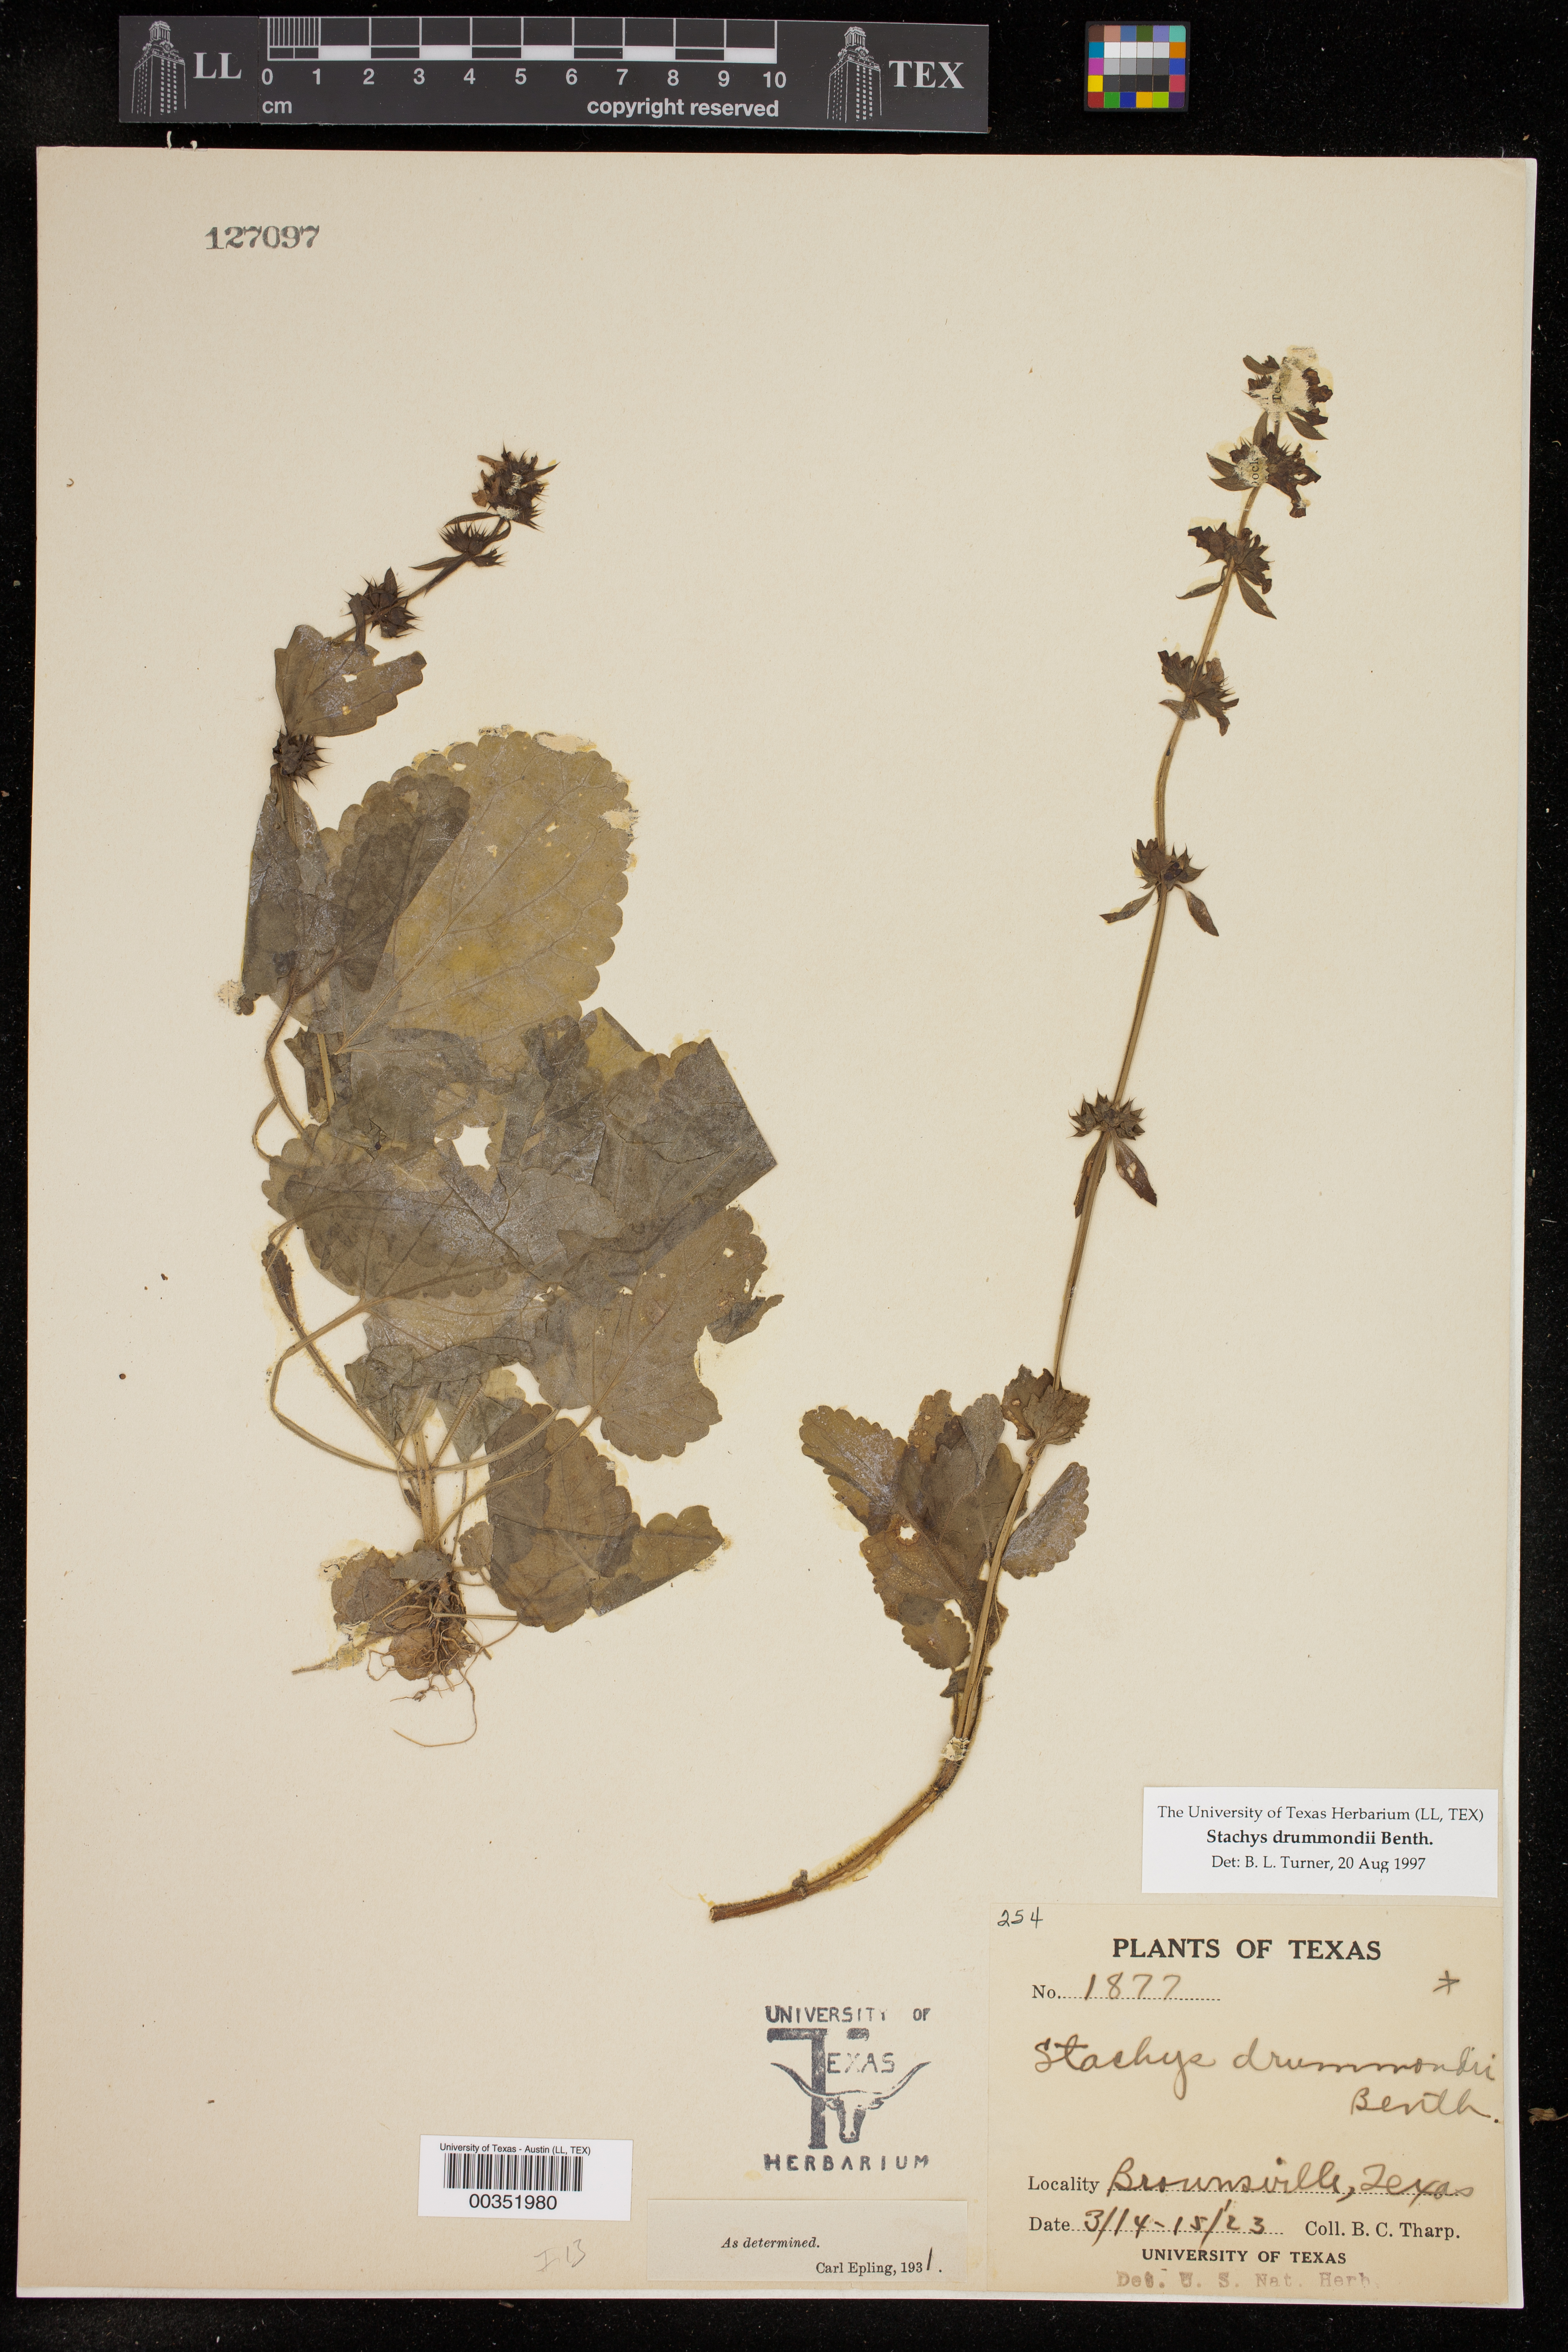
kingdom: Plantae
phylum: Tracheophyta
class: Magnoliopsida
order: Lamiales
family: Lamiaceae
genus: Stachys
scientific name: Stachys drummondii
